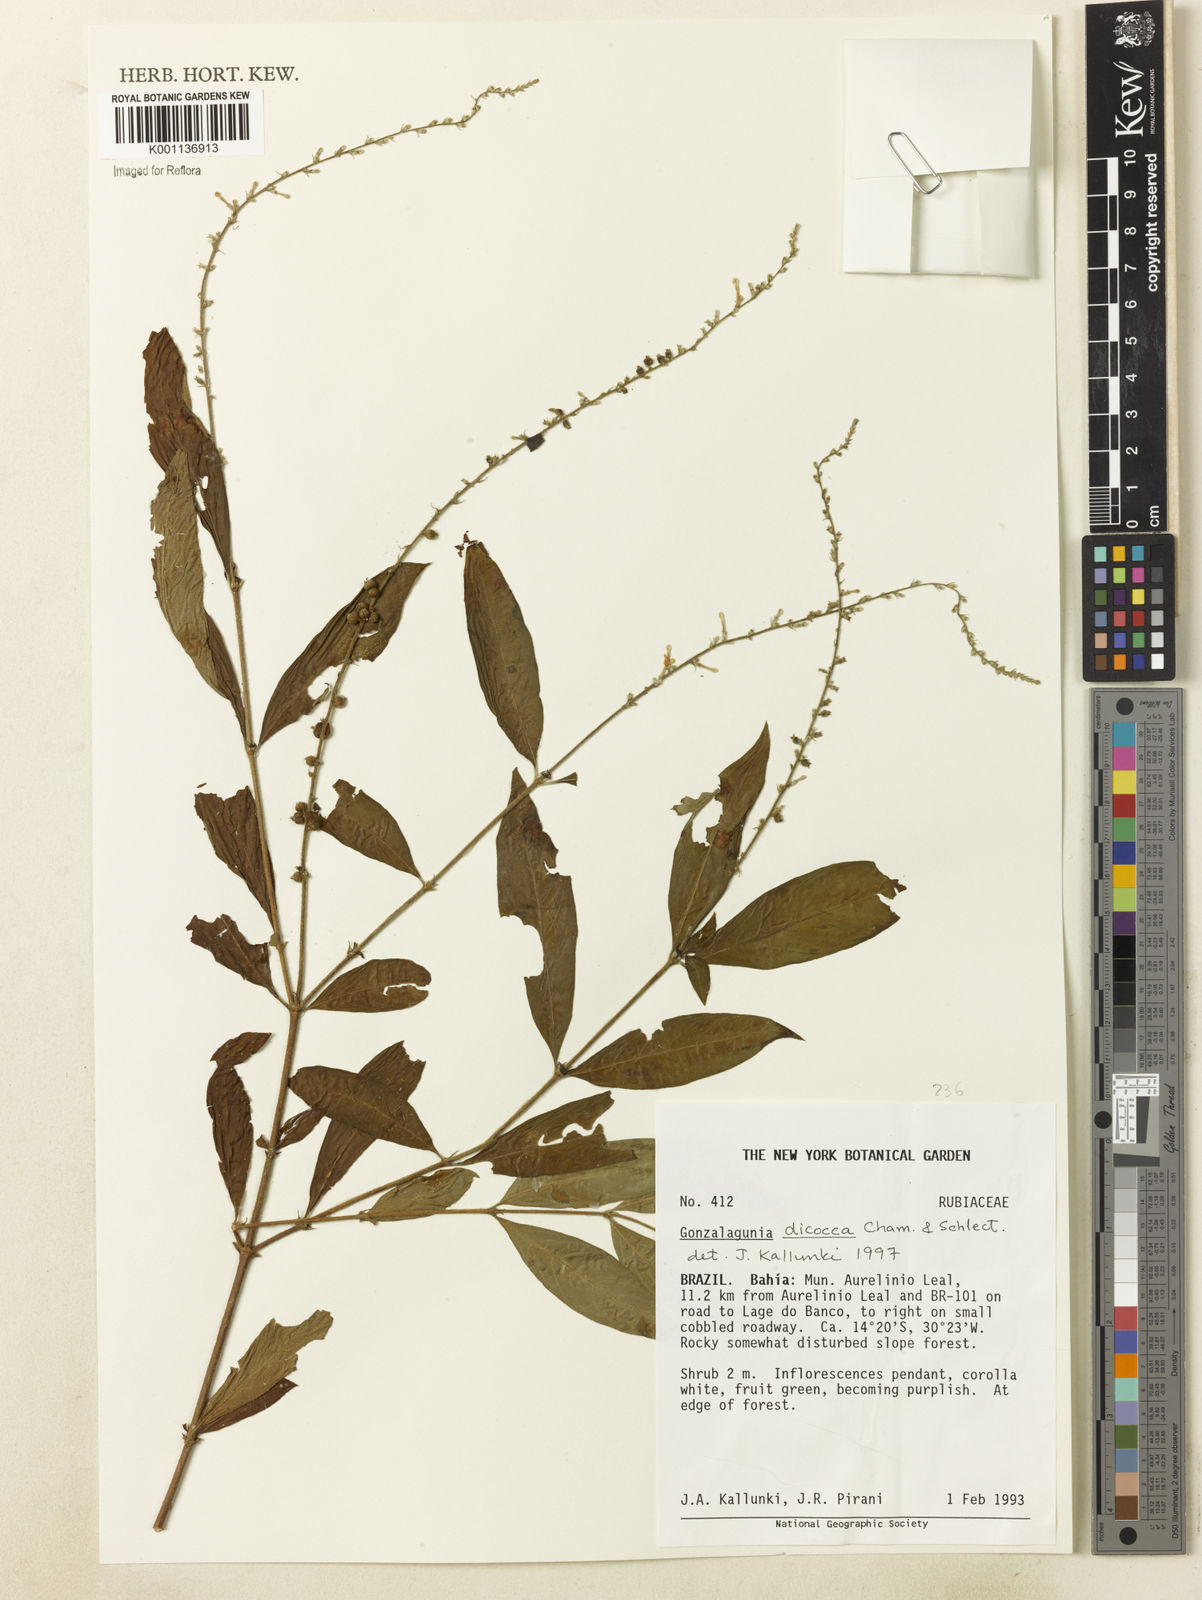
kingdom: Plantae
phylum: Tracheophyta
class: Magnoliopsida
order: Gentianales
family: Rubiaceae
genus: Gonzalagunia
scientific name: Gonzalagunia dicocca
